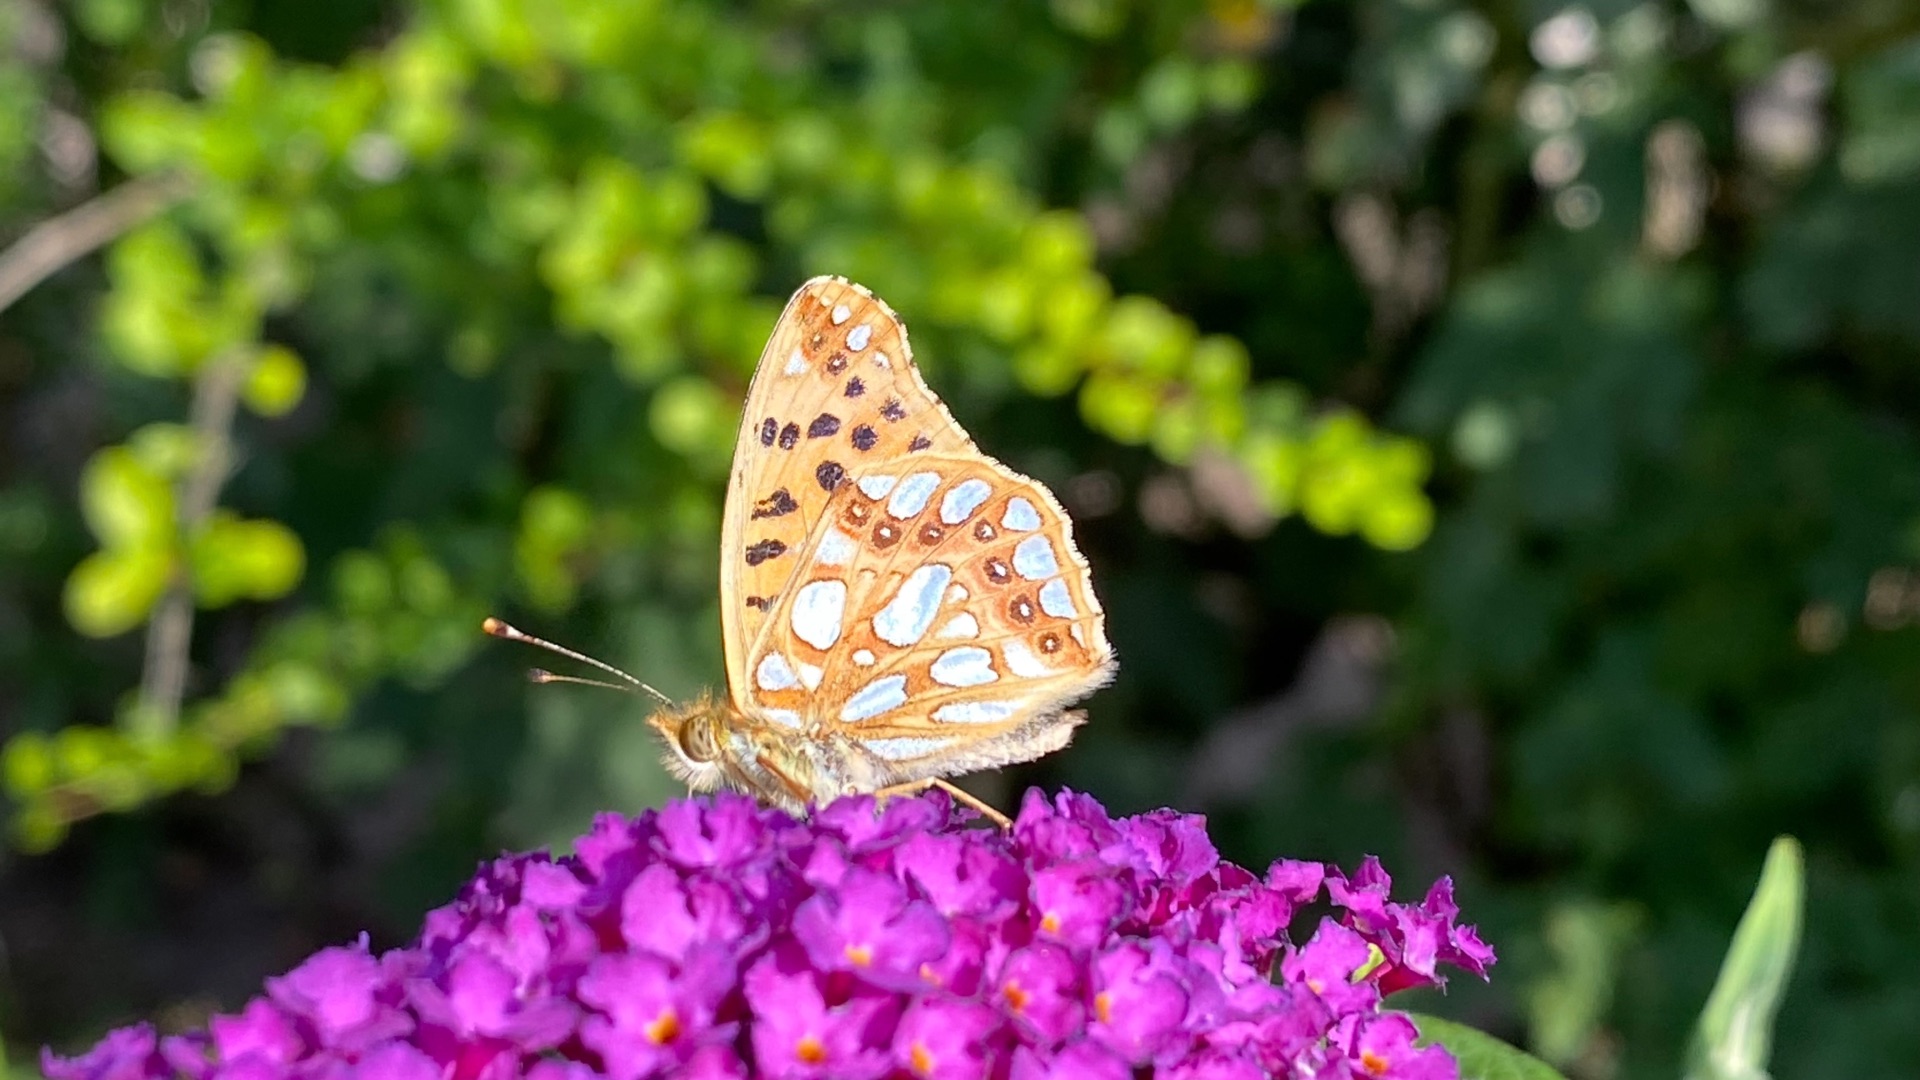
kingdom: Animalia
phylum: Arthropoda
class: Insecta
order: Lepidoptera
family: Nymphalidae
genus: Issoria
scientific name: Issoria lathonia
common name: Storplettet perlemorsommerfugl
